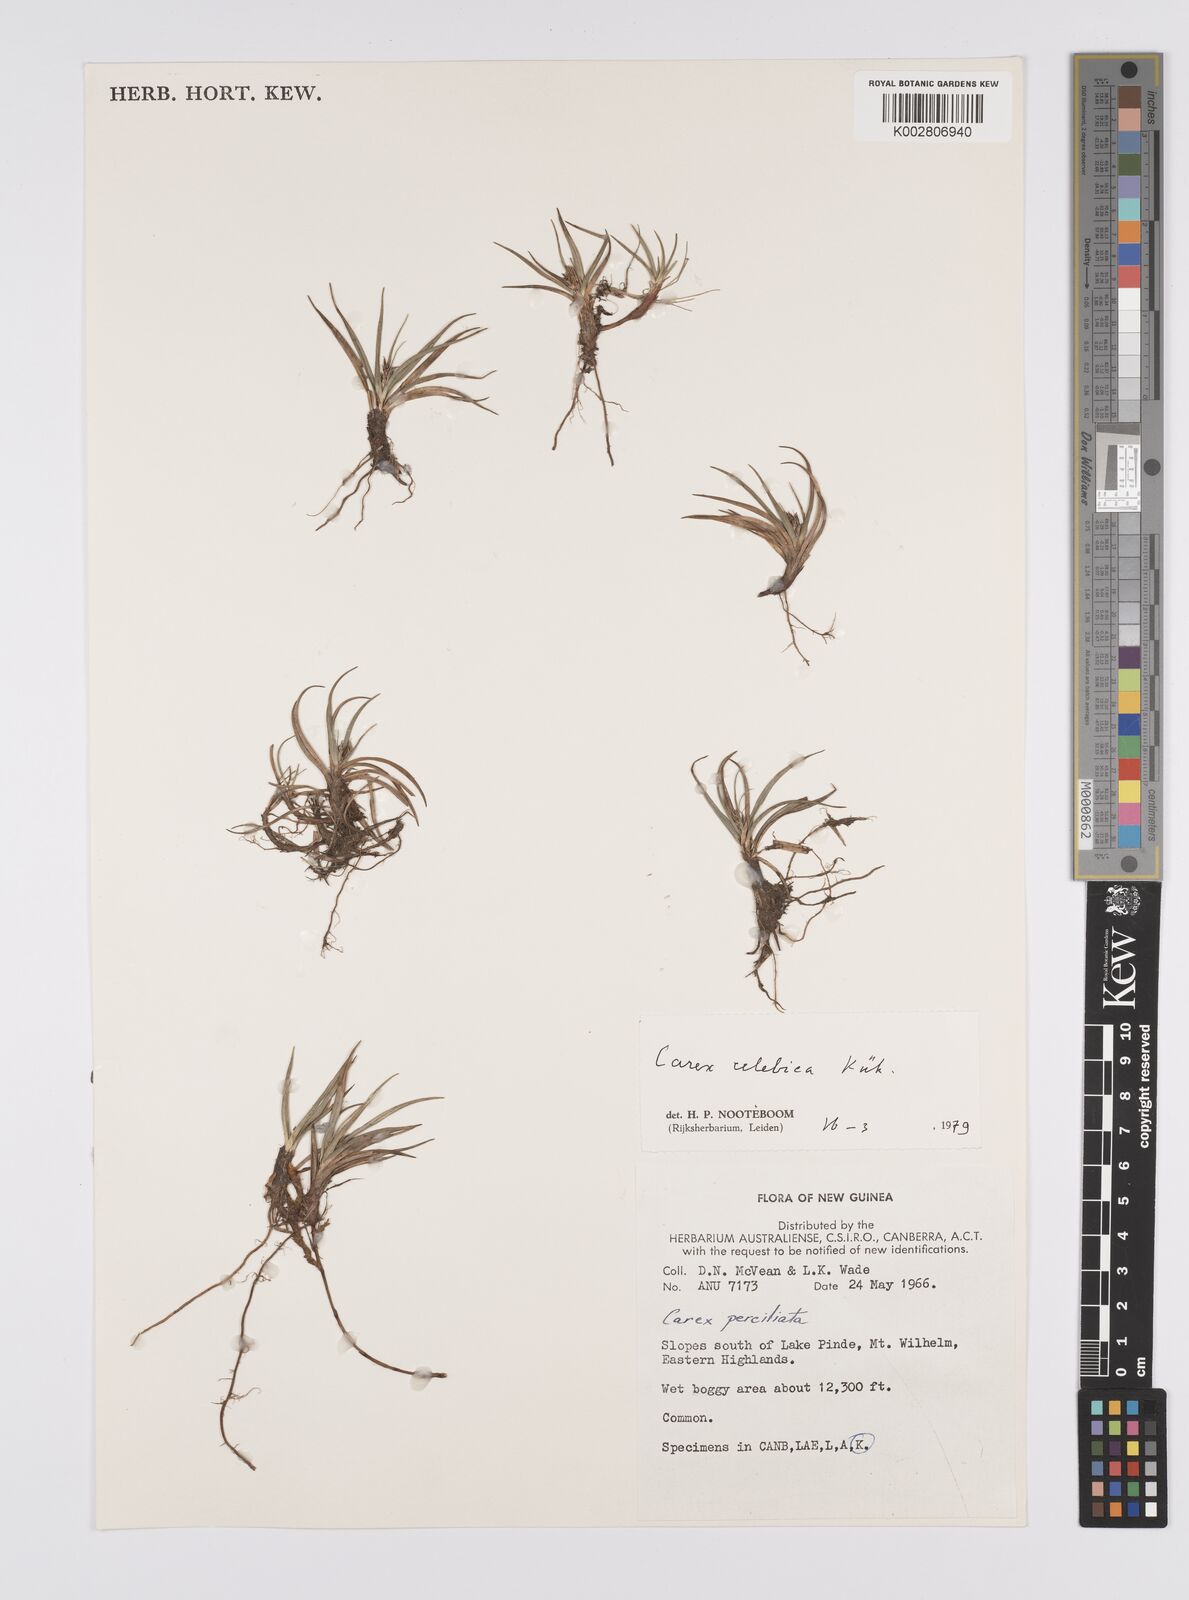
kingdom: Plantae
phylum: Tracheophyta
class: Liliopsida
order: Poales
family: Cyperaceae
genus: Carex
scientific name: Carex celebica
